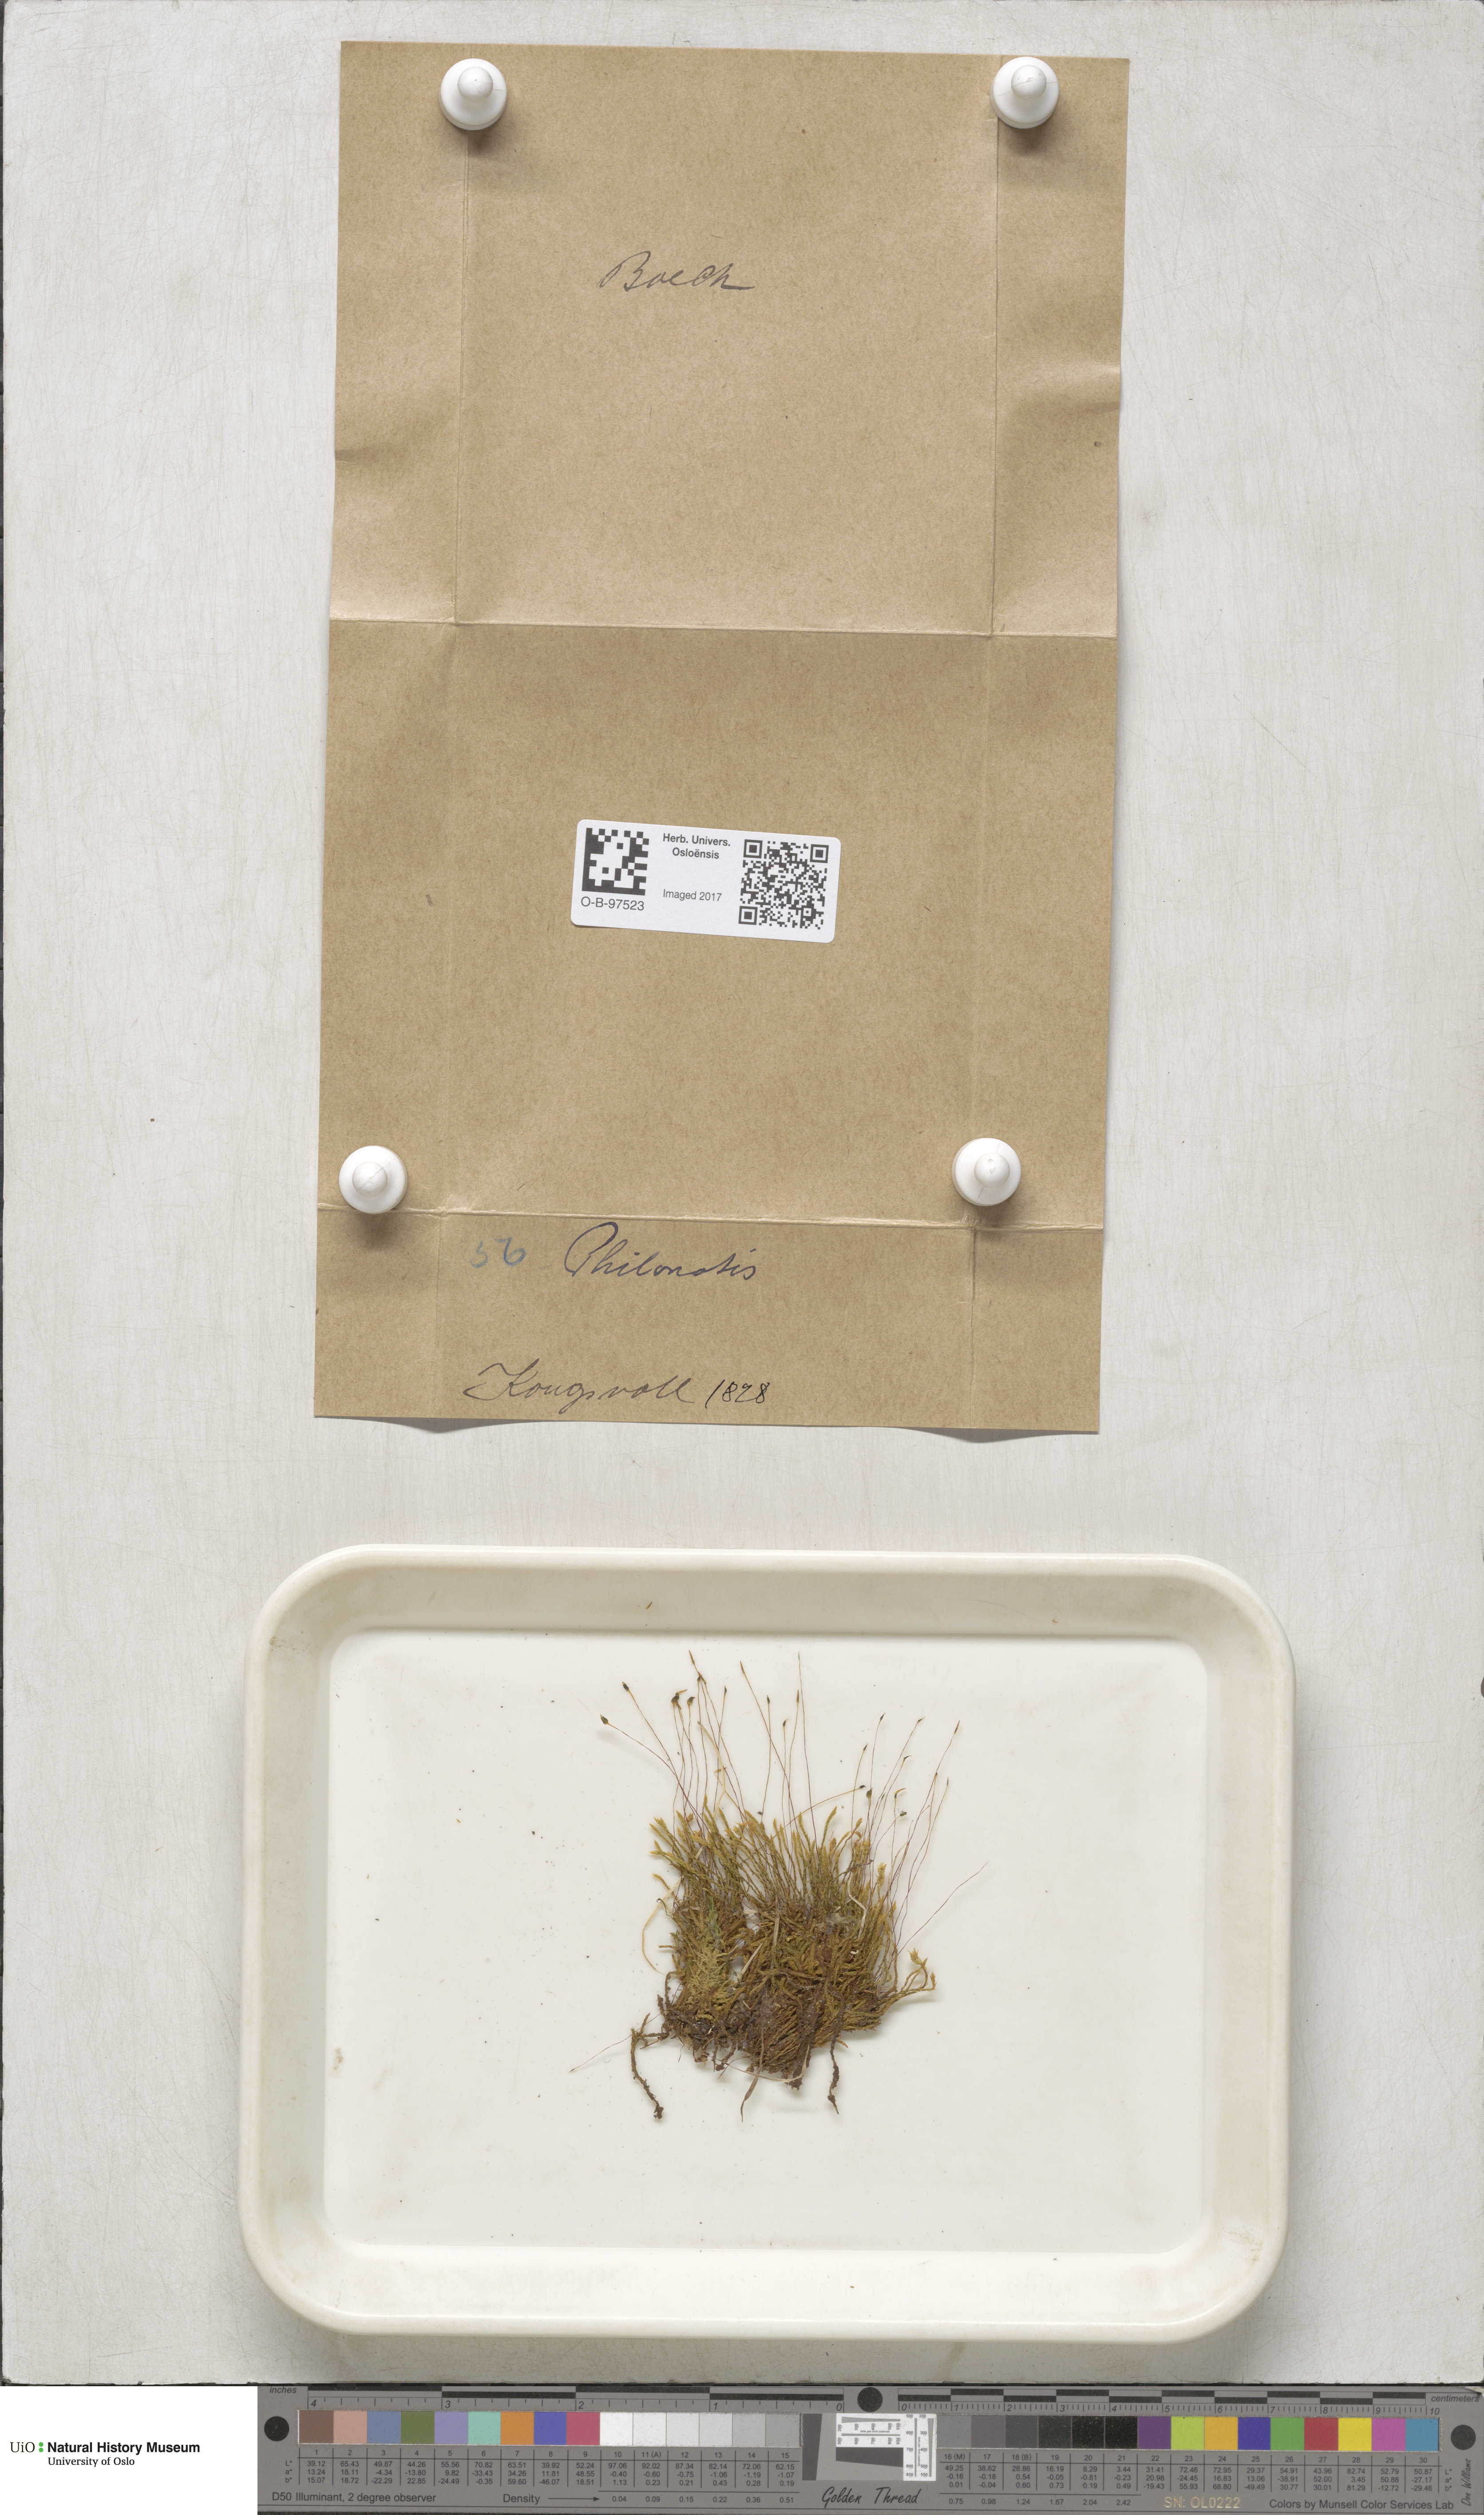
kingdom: Plantae
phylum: Bryophyta
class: Bryopsida
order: Bartramiales
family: Bartramiaceae
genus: Philonotis
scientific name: Philonotis
